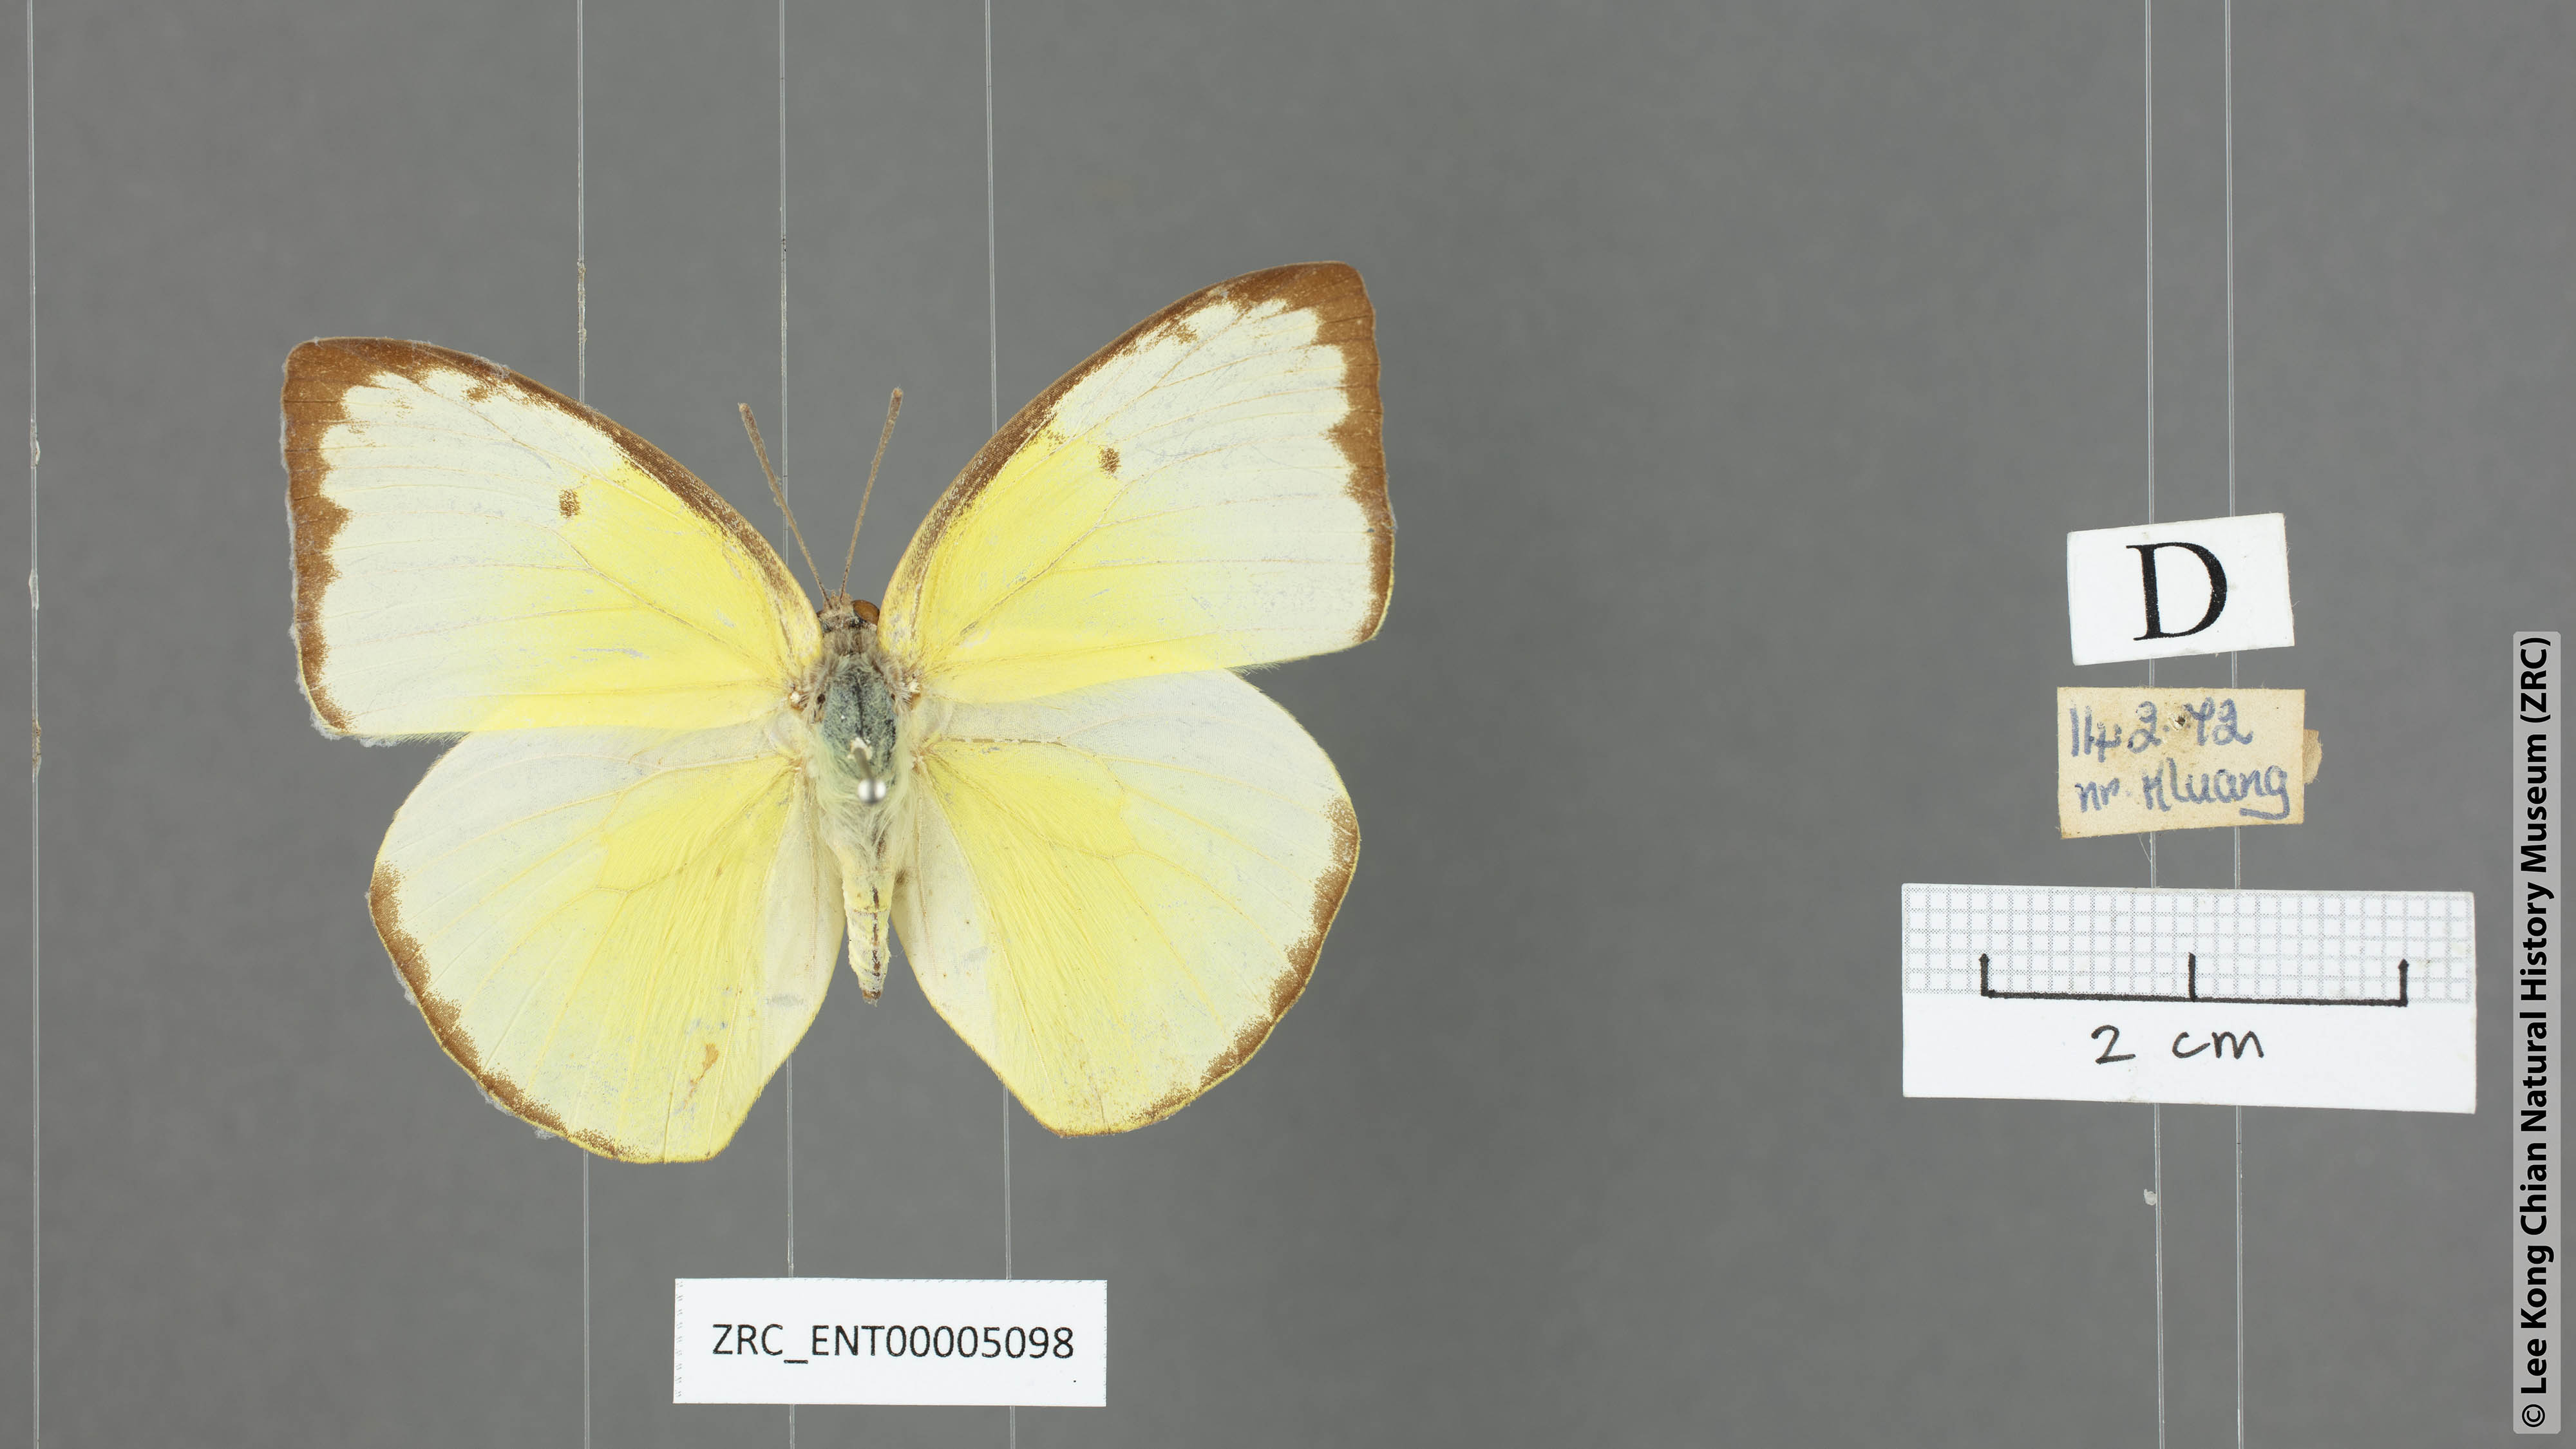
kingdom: Animalia
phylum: Arthropoda
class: Insecta
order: Lepidoptera
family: Pieridae
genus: Catopsilia
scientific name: Catopsilia pomona
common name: Common emigrant
